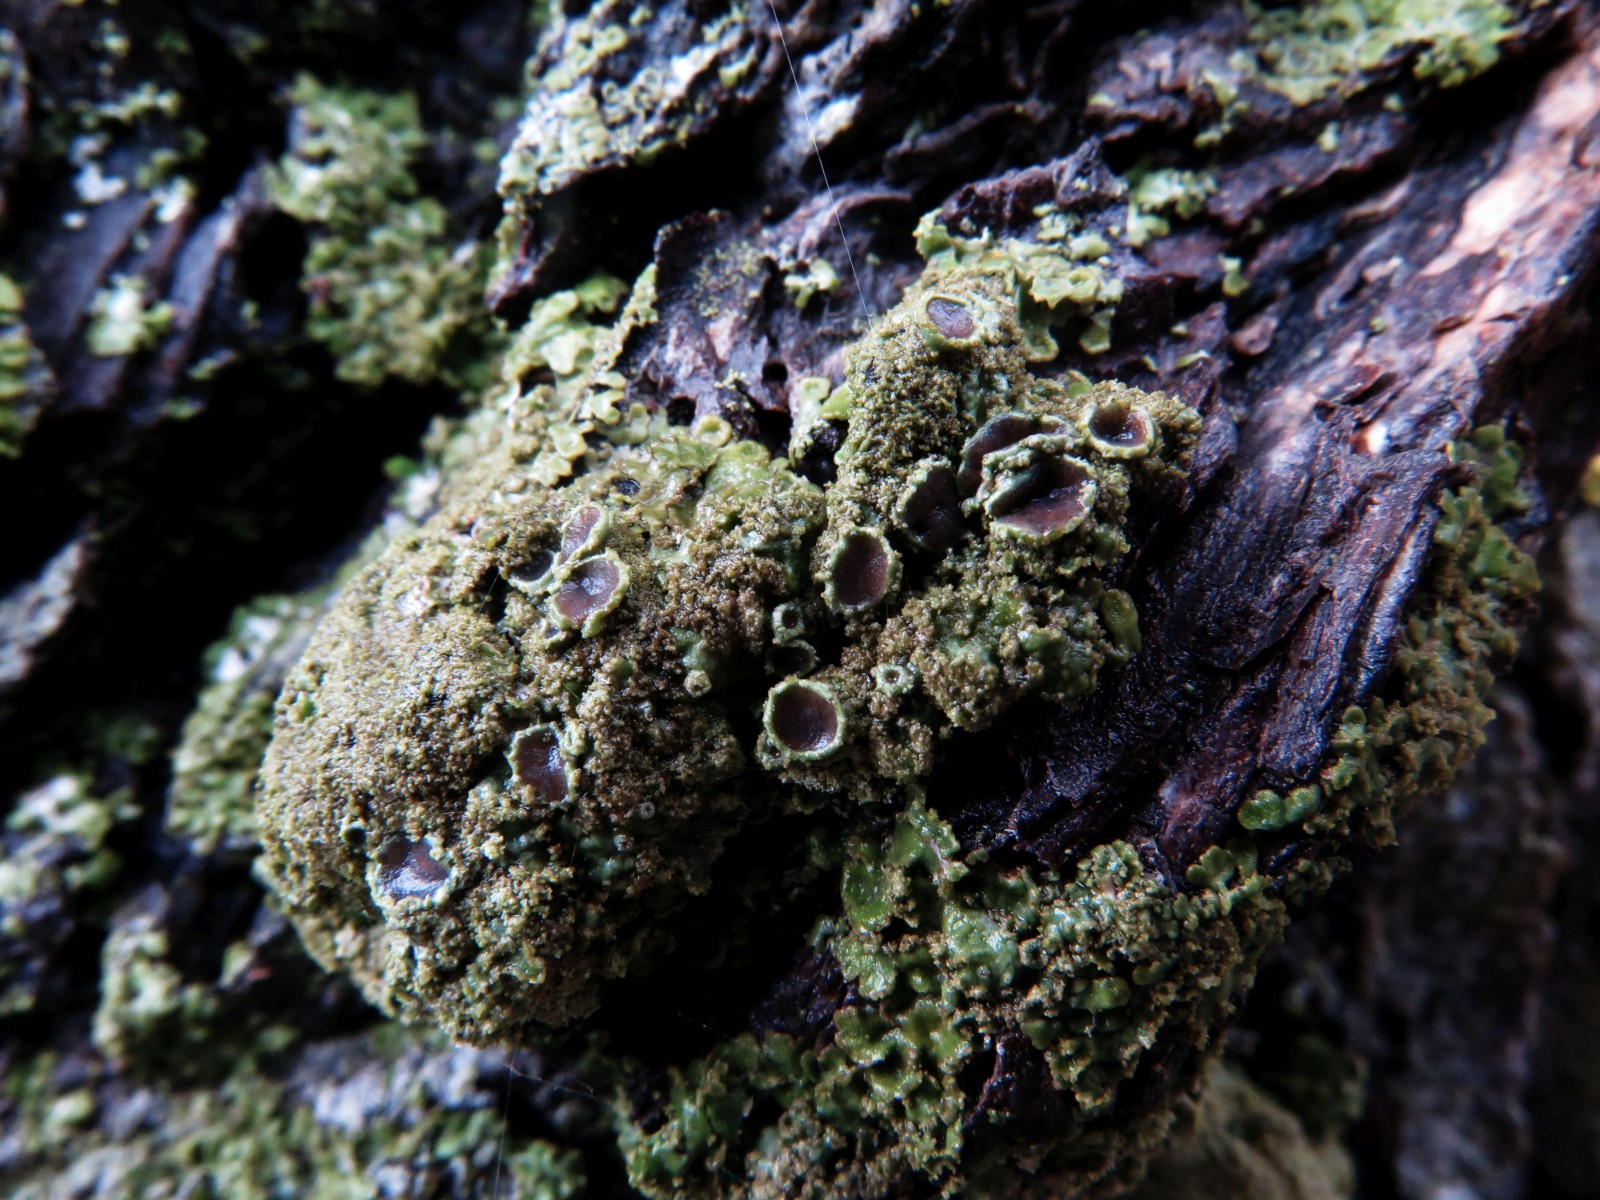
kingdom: Fungi
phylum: Ascomycota
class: Lecanoromycetes
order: Lecanorales
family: Parmeliaceae
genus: Pleurosticta
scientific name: Pleurosticta acetabulum
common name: stor skållav
